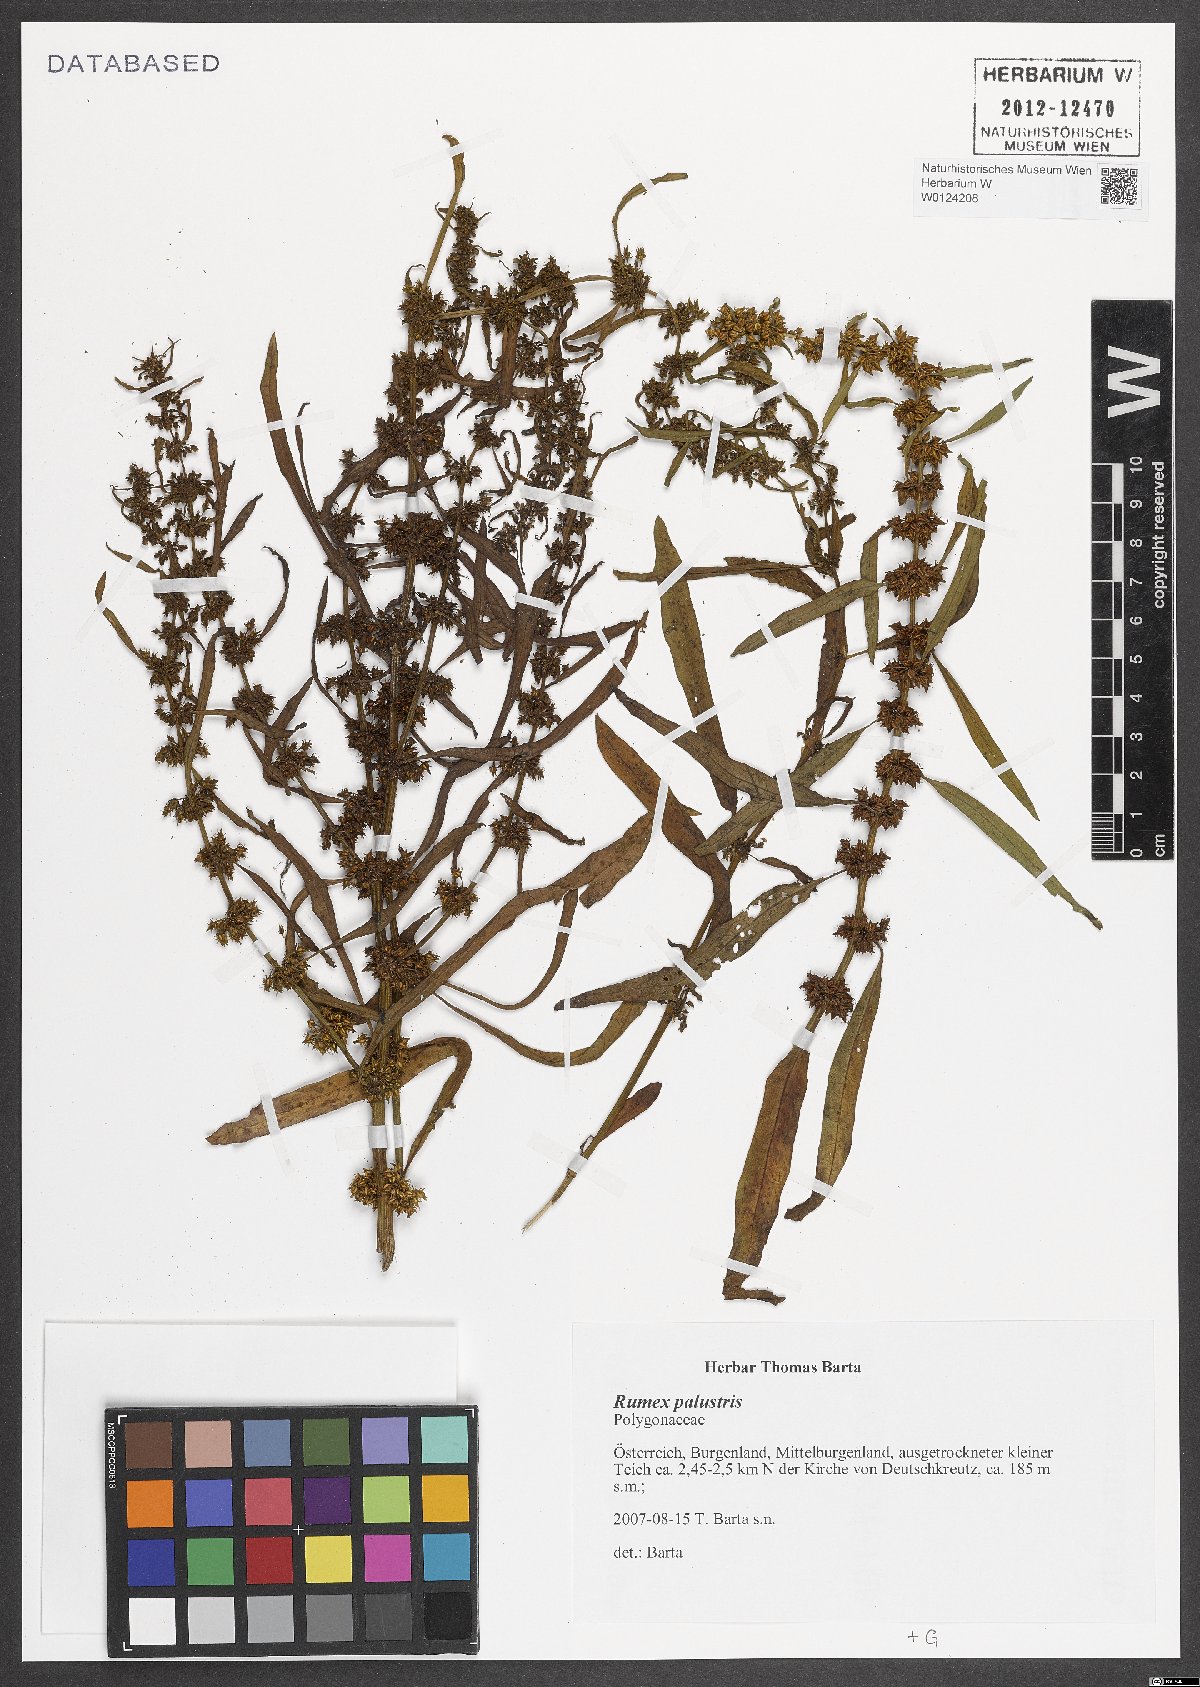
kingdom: Plantae
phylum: Tracheophyta
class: Magnoliopsida
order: Caryophyllales
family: Polygonaceae
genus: Rumex
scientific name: Rumex palustris
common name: Marsh dock
